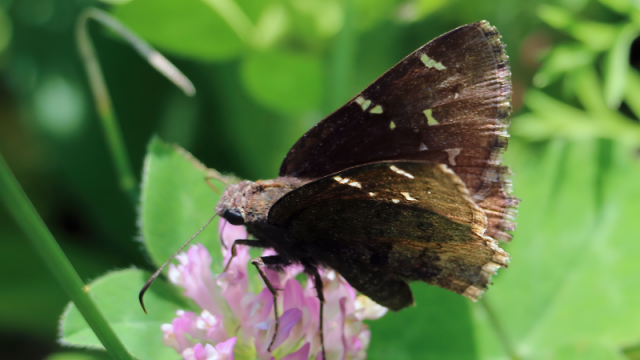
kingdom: Animalia
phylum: Arthropoda
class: Insecta
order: Lepidoptera
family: Hesperiidae
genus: Autochton
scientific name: Autochton
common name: Northern Cloudywing
